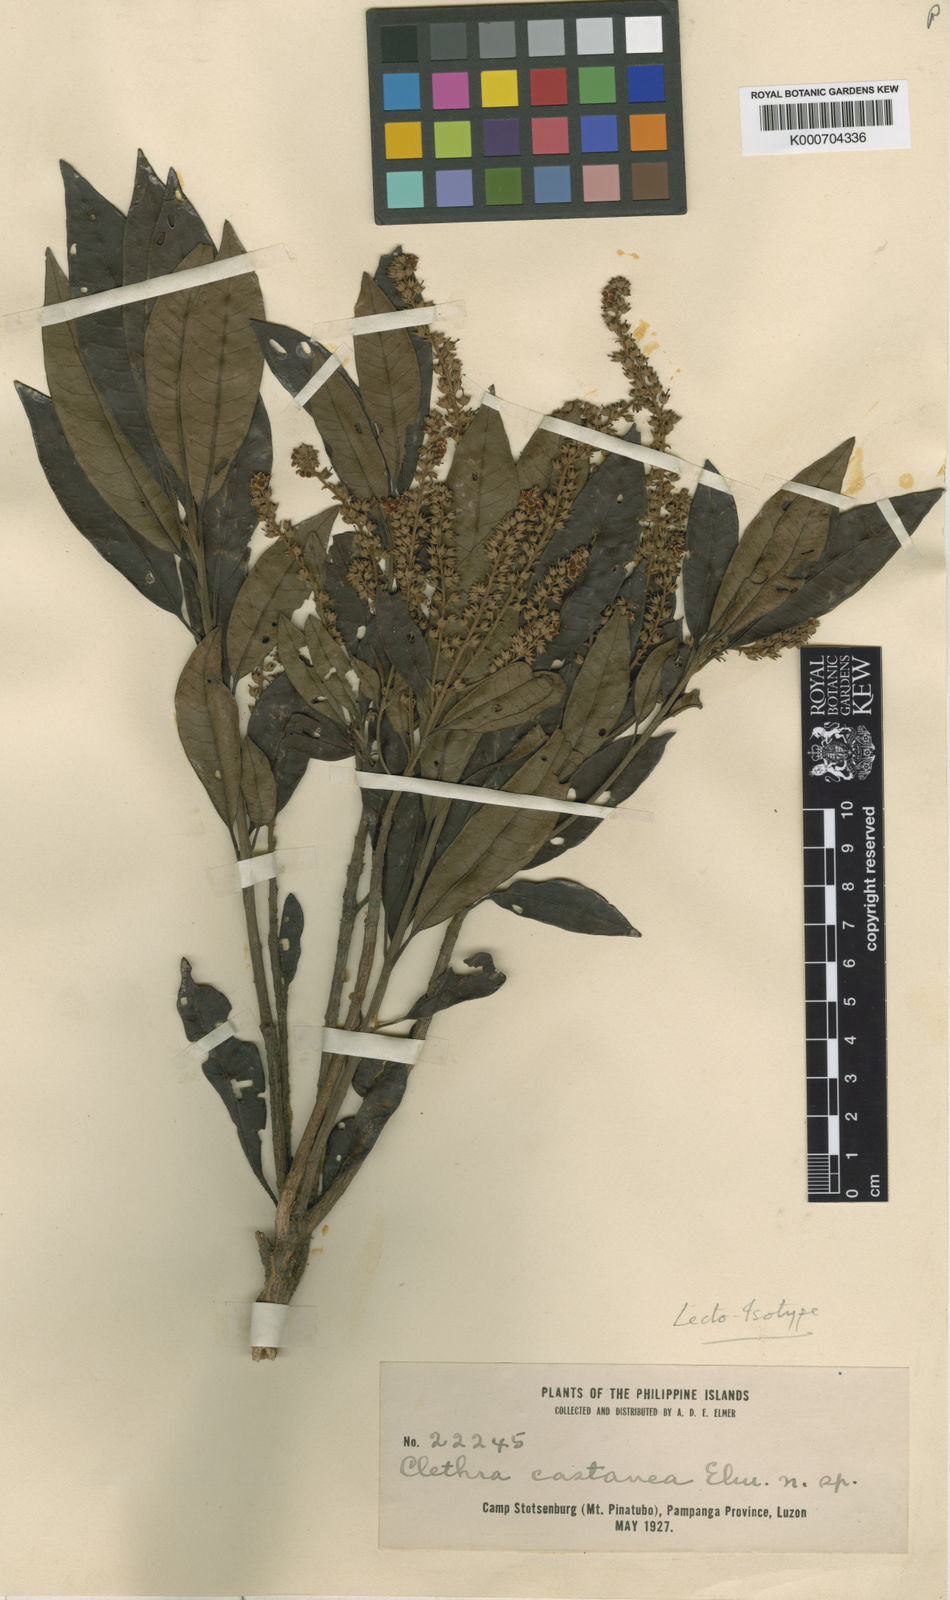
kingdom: Plantae
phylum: Tracheophyta
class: Magnoliopsida
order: Ericales
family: Clethraceae
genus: Clethra
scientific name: Clethra canescens
